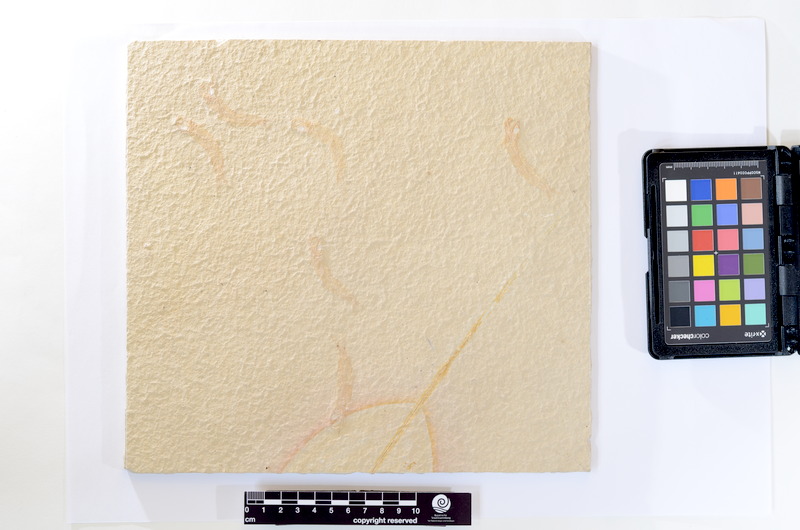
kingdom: Animalia
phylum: Chordata
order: Salmoniformes
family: Orthogonikleithridae
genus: Leptolepides
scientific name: Leptolepides sprattiformis
